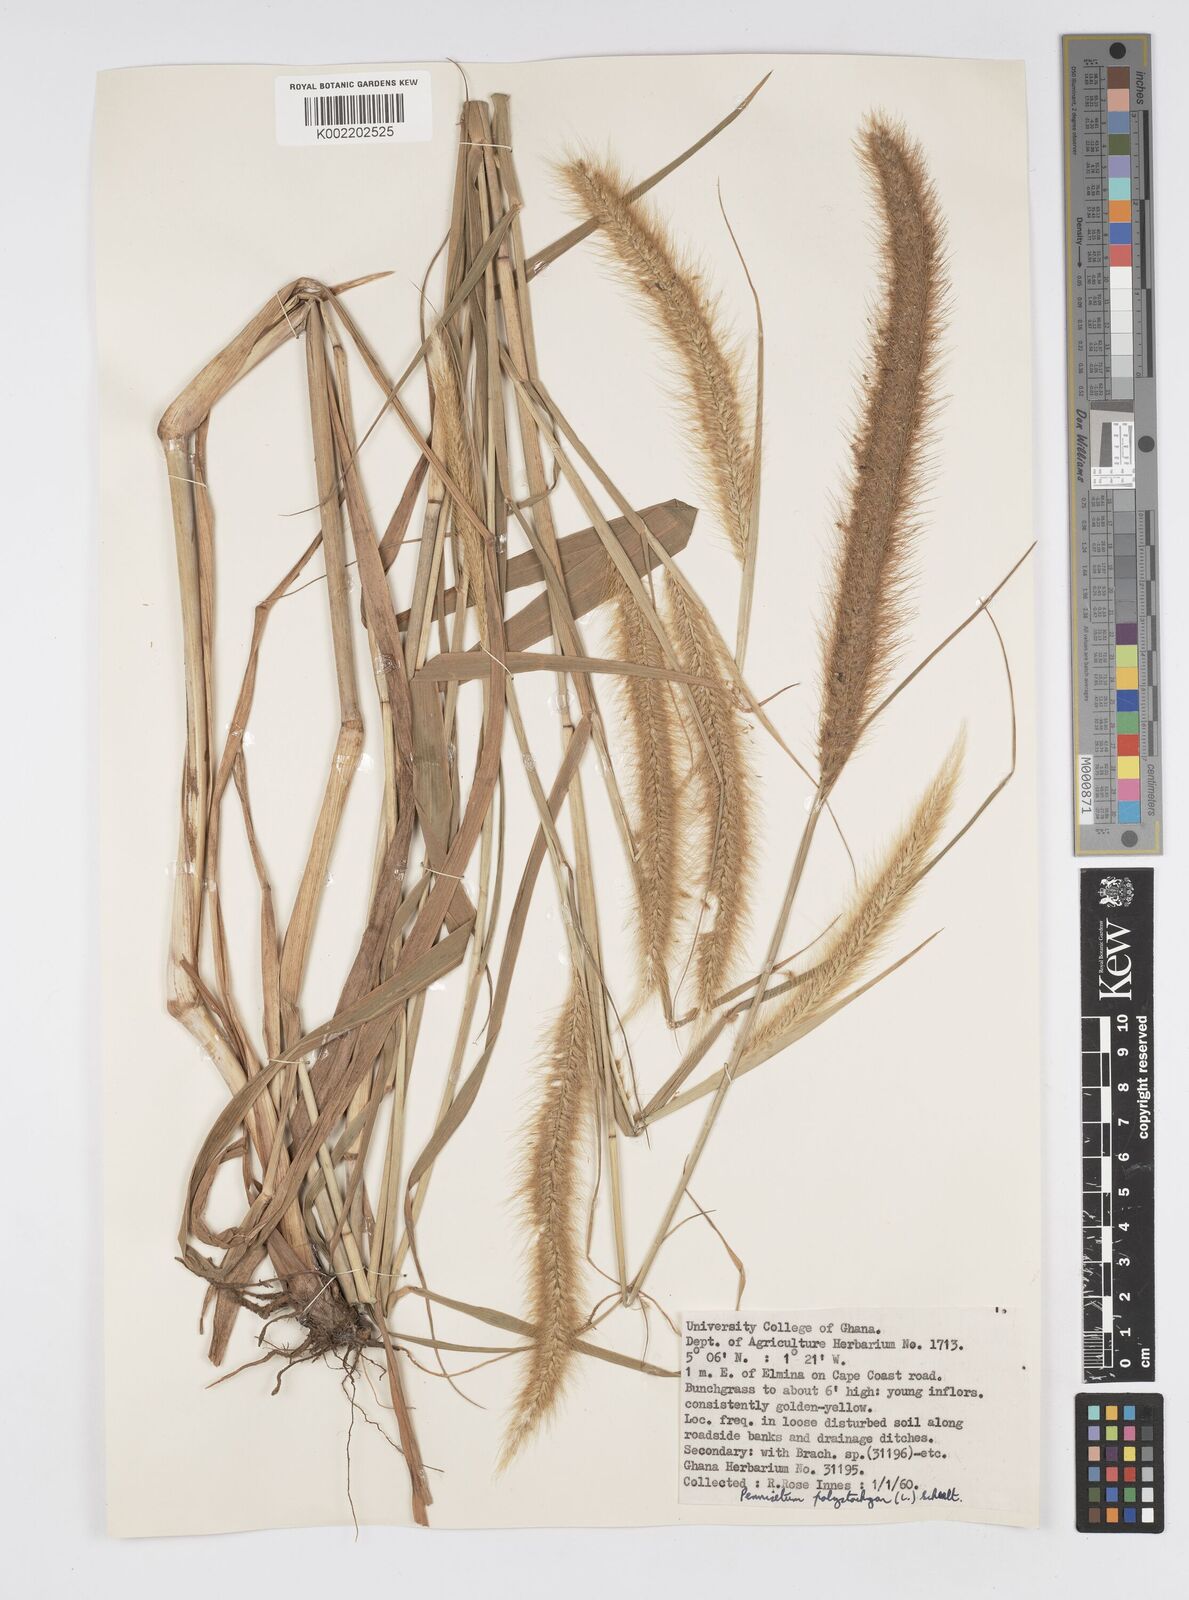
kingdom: Plantae
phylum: Tracheophyta
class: Liliopsida
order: Poales
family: Poaceae
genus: Cenchrus
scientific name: Cenchrus Pennisetum spec
